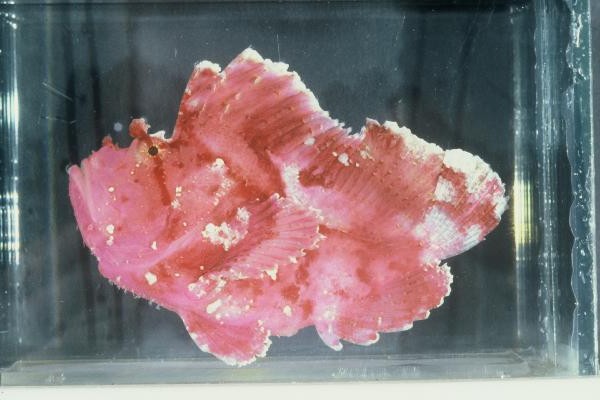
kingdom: Animalia
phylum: Chordata
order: Scorpaeniformes
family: Scorpaenidae
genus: Taenianotus
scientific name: Taenianotus triacanthus
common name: Leaf scorpionfish
